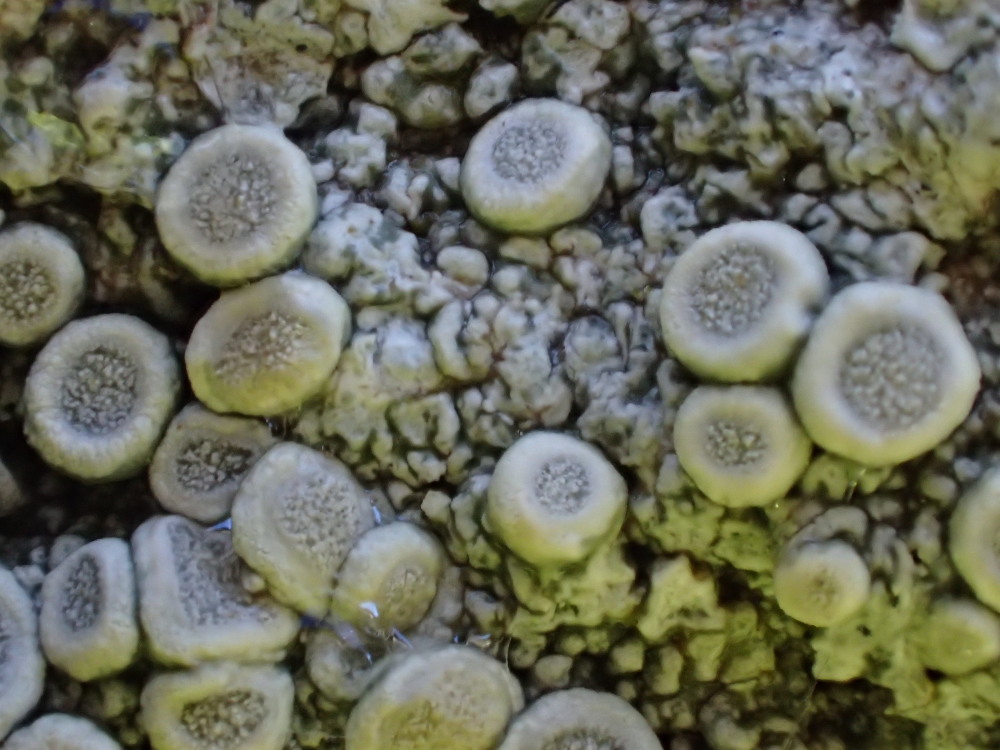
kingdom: Fungi
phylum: Ascomycota
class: Lecanoromycetes
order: Pertusariales
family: Ochrolechiaceae
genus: Ochrolechia
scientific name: Ochrolechia parella
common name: almindelig blegskivelav
